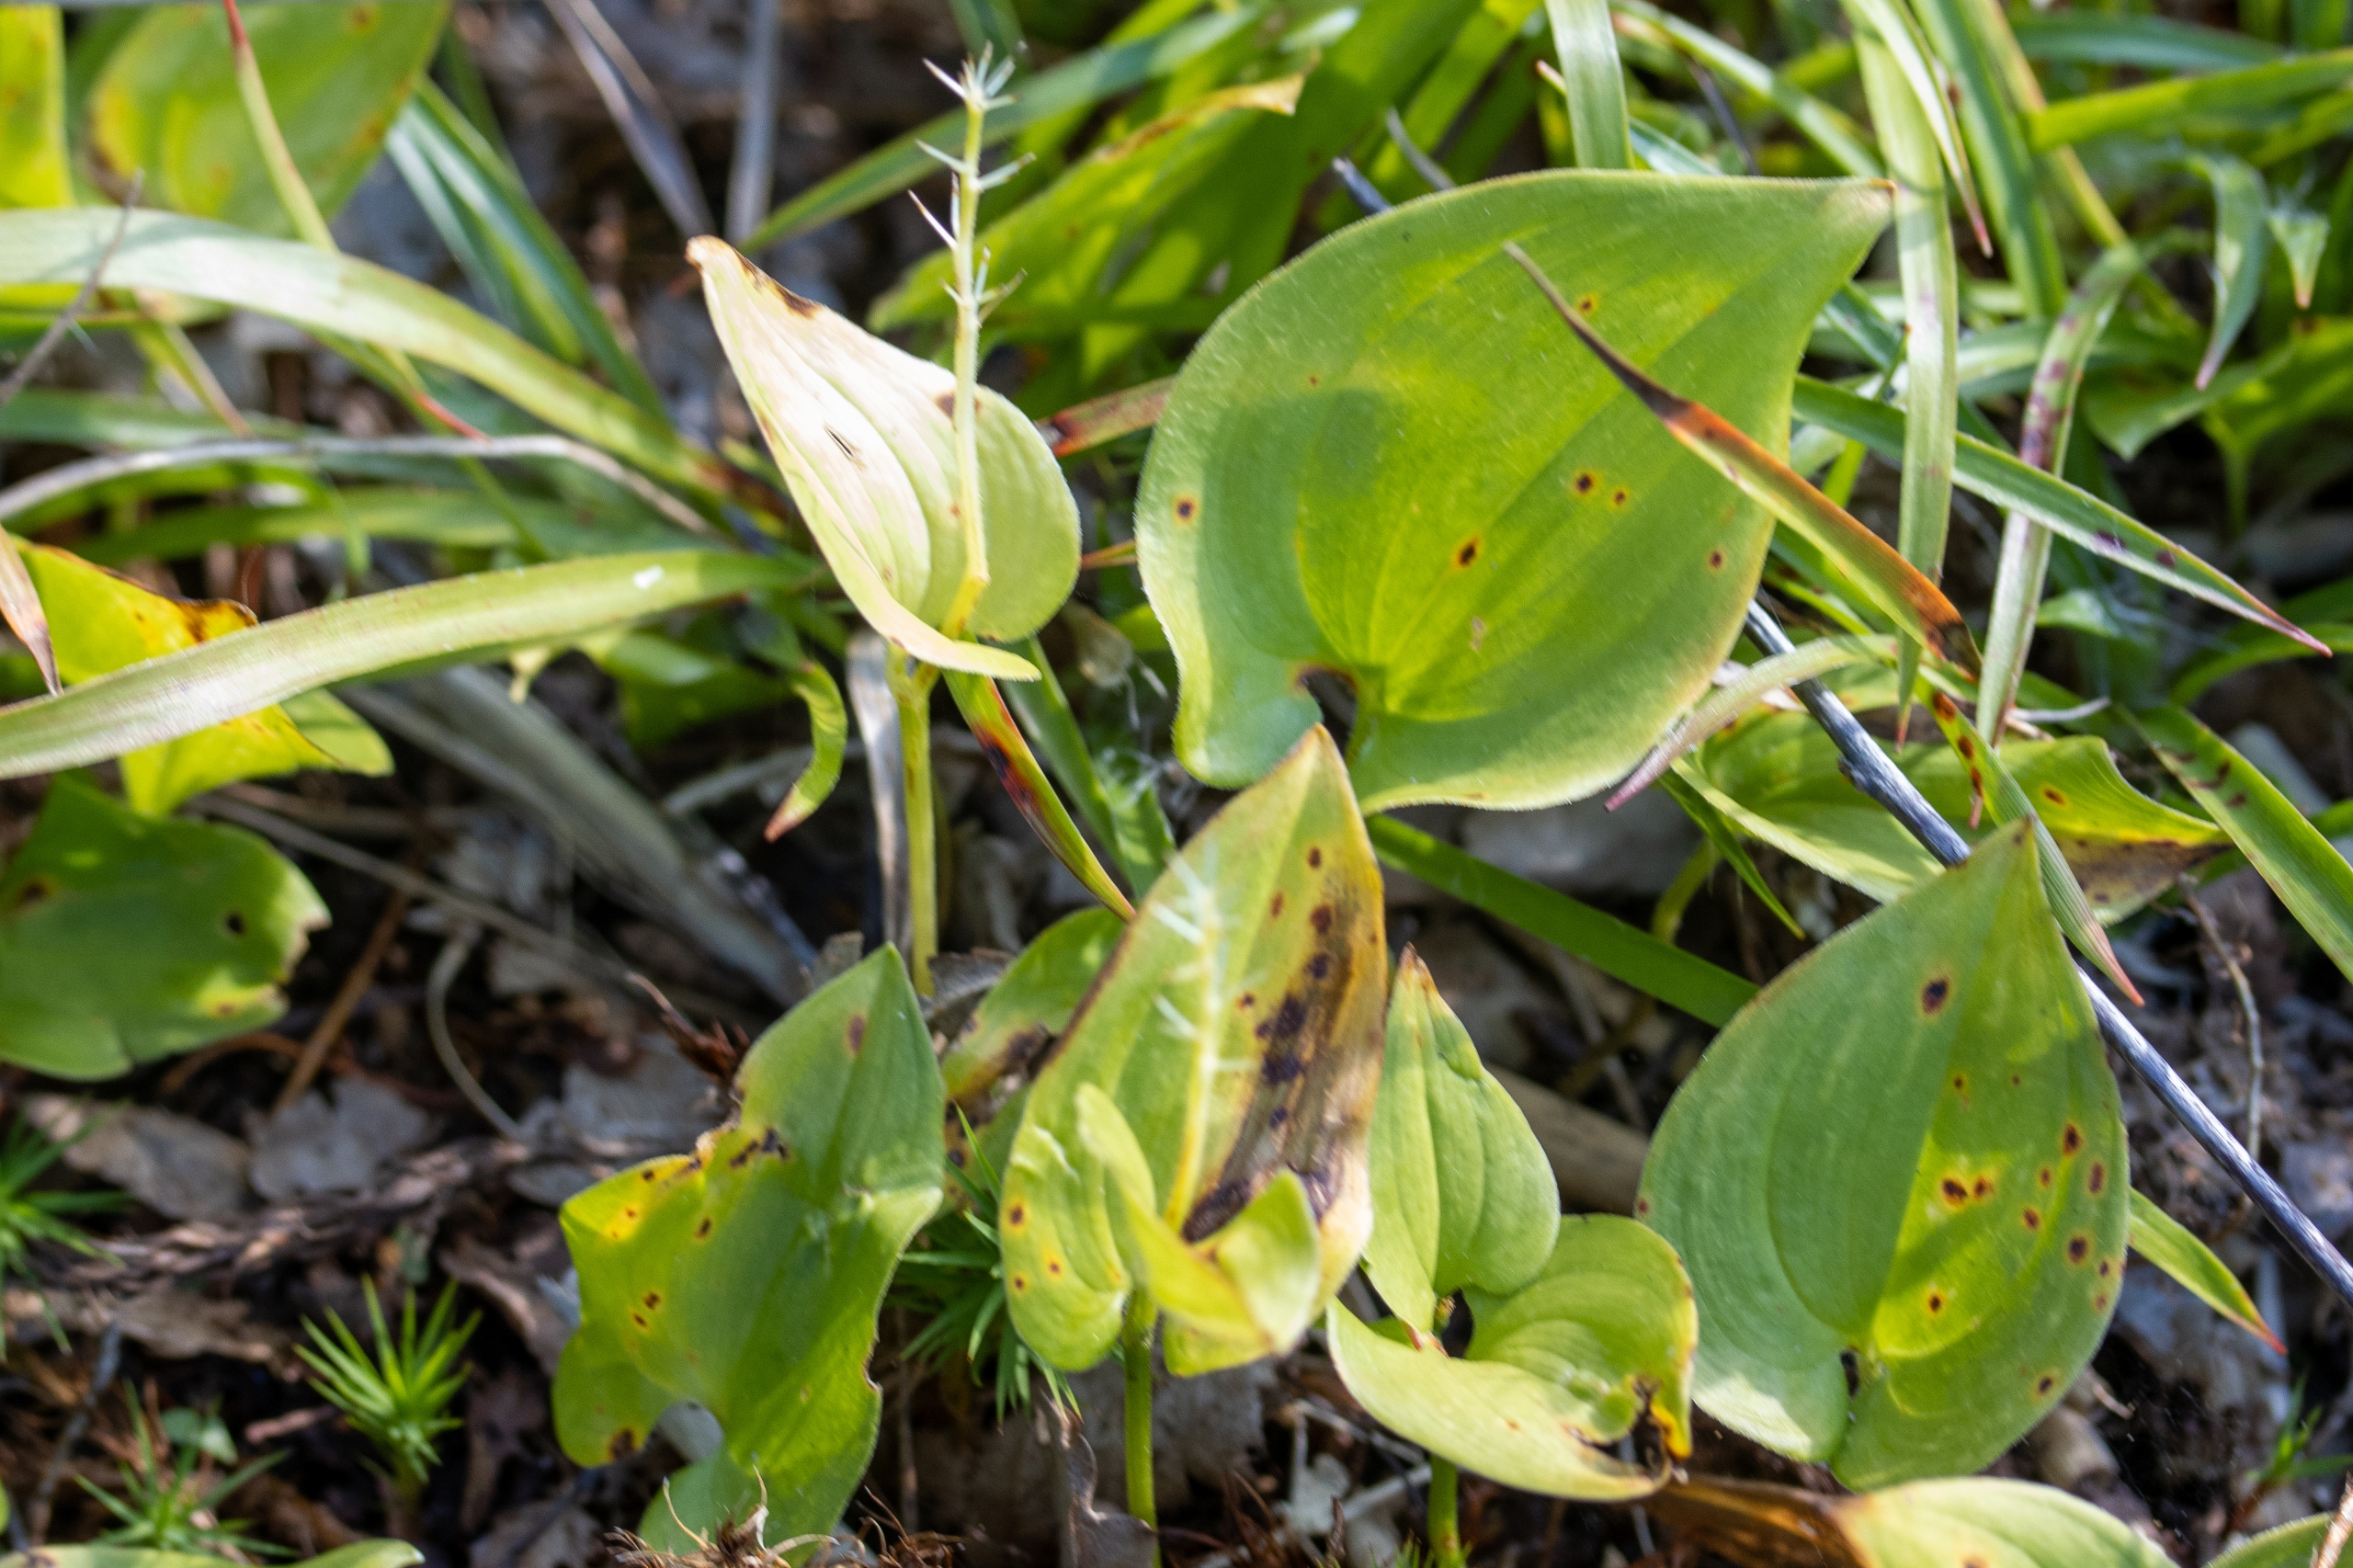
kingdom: Plantae
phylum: Tracheophyta
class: Liliopsida
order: Asparagales
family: Asparagaceae
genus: Maianthemum
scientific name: Maianthemum bifolium
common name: Majblomst
